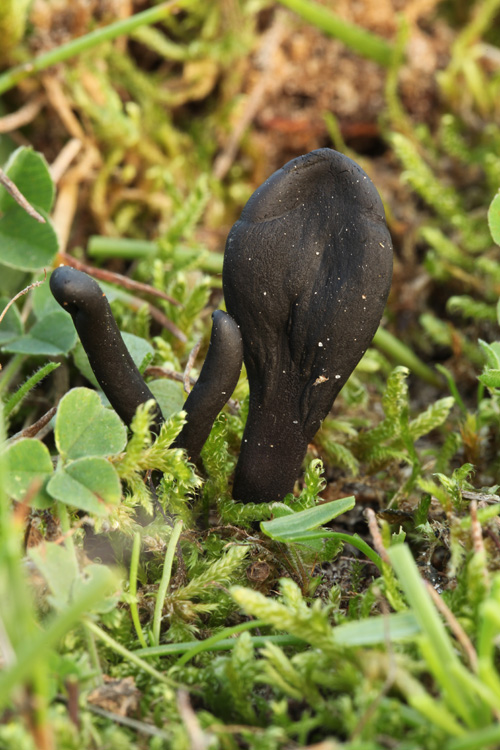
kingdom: Fungi
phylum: Ascomycota
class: Geoglossomycetes
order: Geoglossales
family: Geoglossaceae
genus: Geoglossum
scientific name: Geoglossum cookeianum
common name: bred jordtunge
